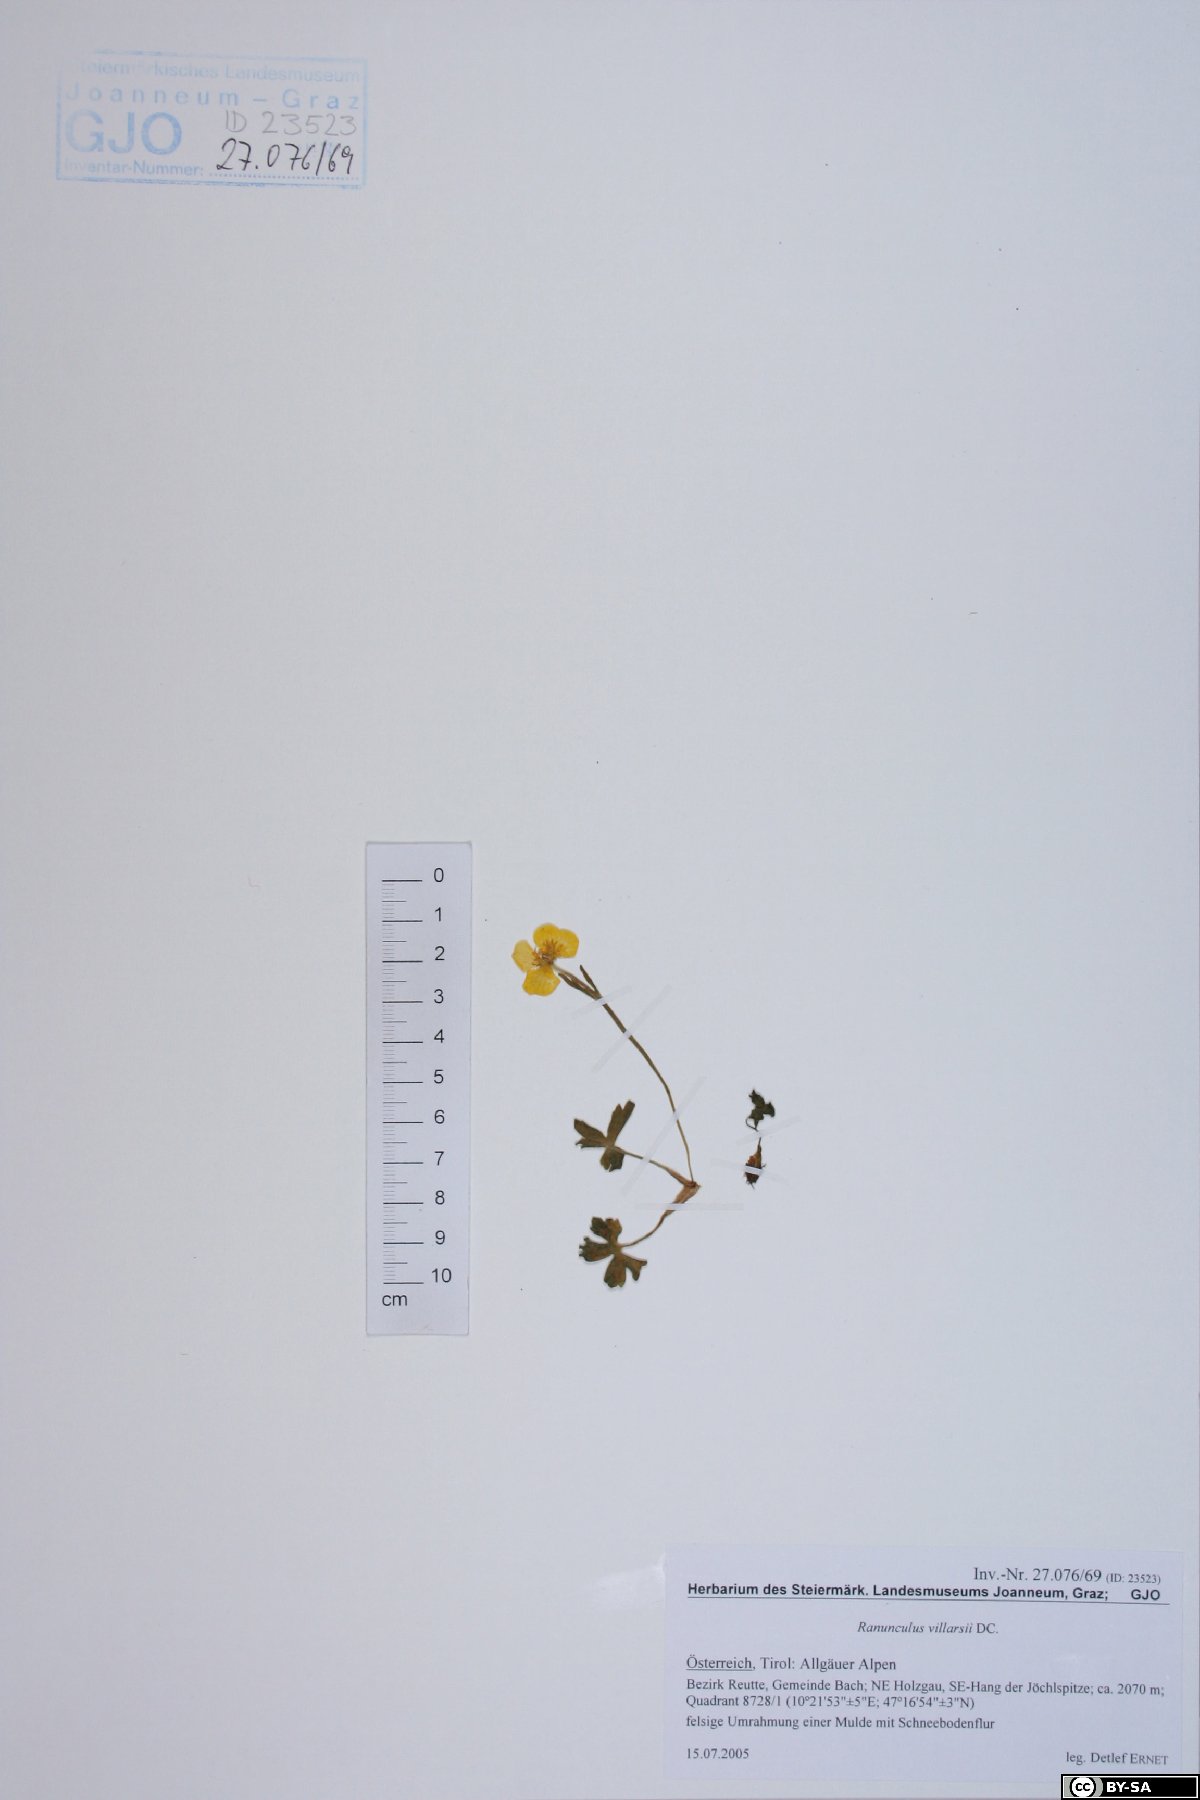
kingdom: Plantae
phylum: Tracheophyta
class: Magnoliopsida
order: Ranunculales
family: Ranunculaceae
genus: Ranunculus
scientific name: Ranunculus villarsii
